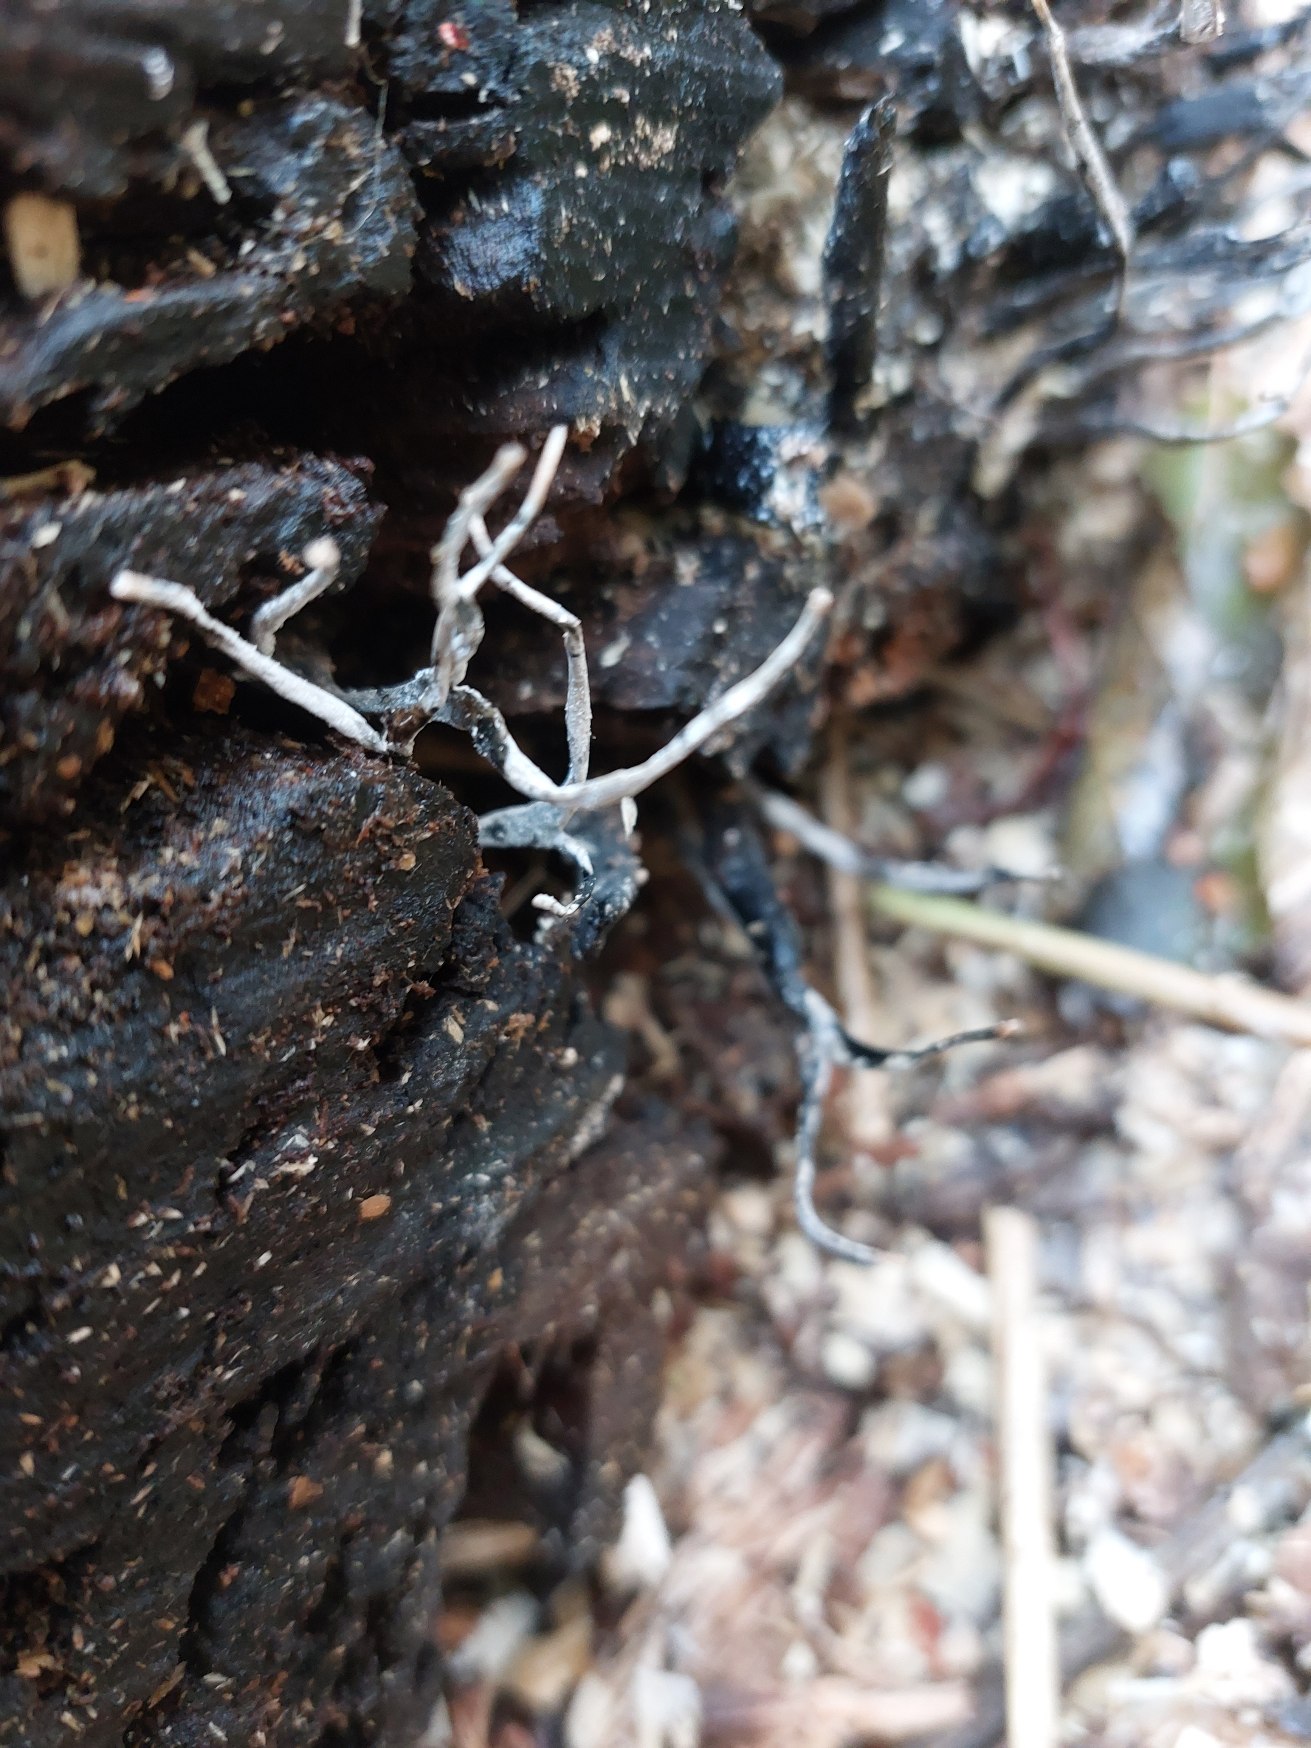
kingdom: Fungi
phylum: Ascomycota
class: Sordariomycetes
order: Xylariales
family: Xylariaceae
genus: Xylaria
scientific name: Xylaria hypoxylon
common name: Grenet stødsvamp
